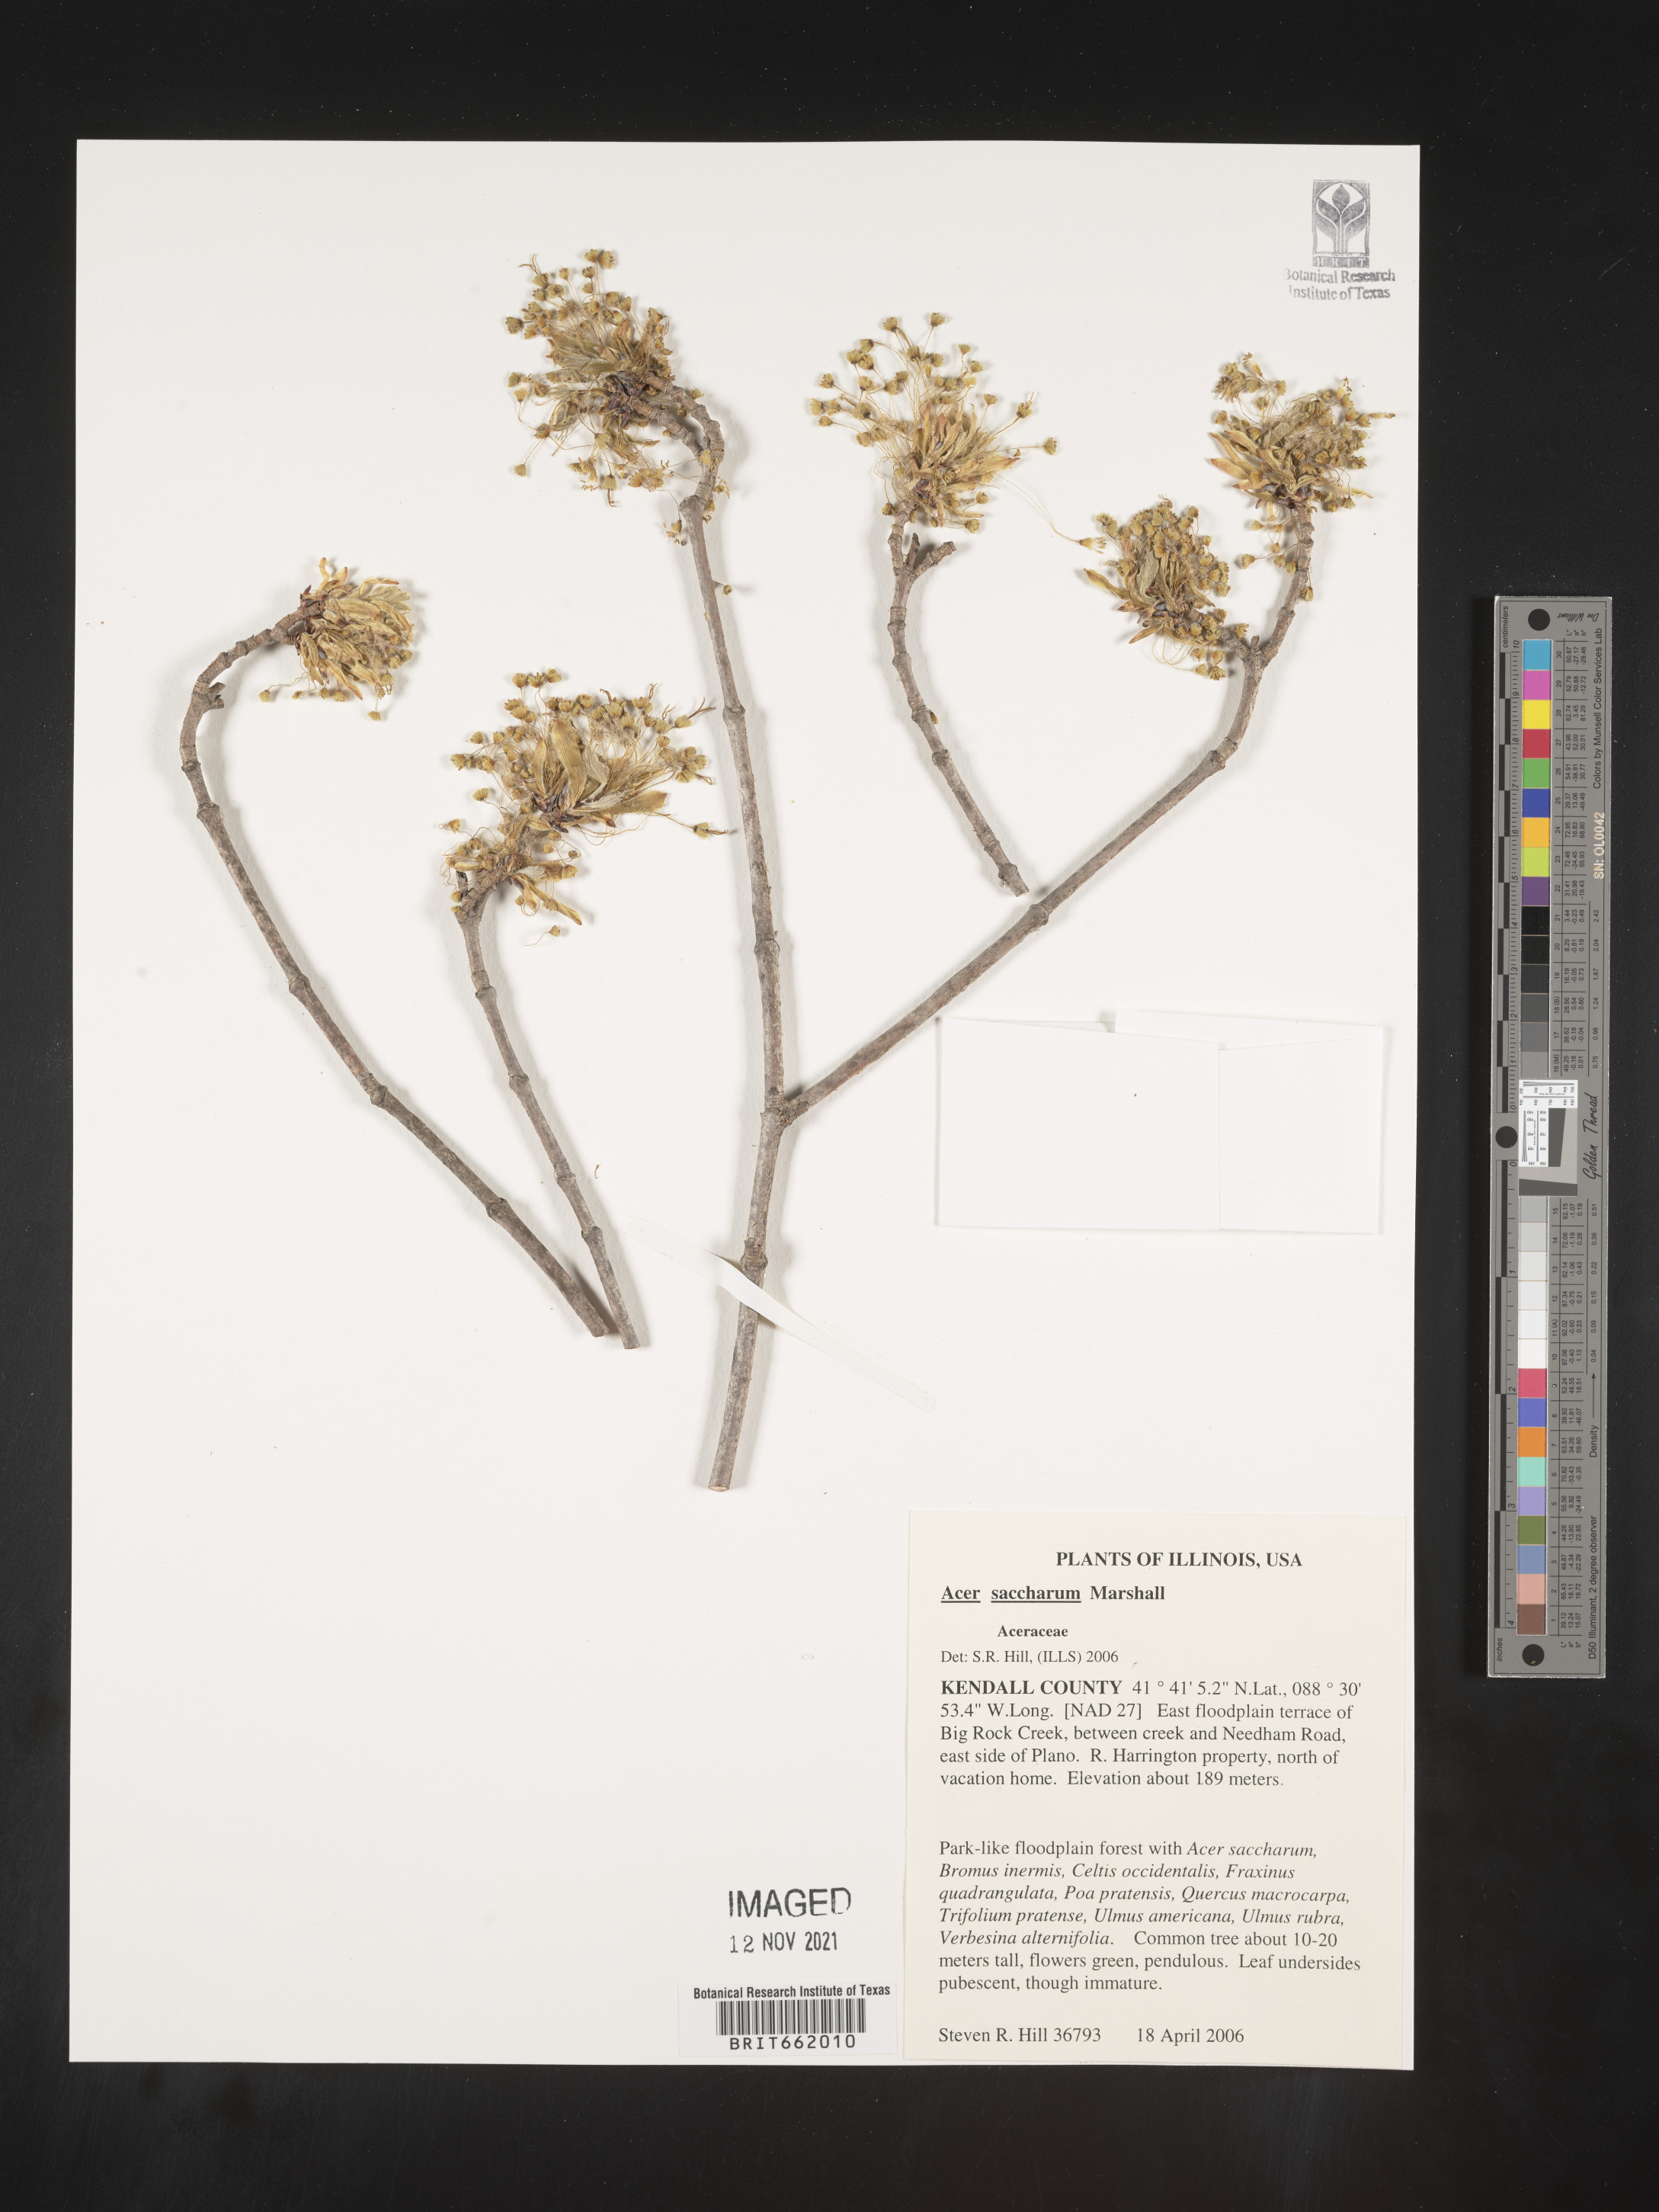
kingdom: Plantae
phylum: Tracheophyta
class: Magnoliopsida
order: Sapindales
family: Sapindaceae
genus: Acer
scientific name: Acer saccharum
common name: Sugar maple
